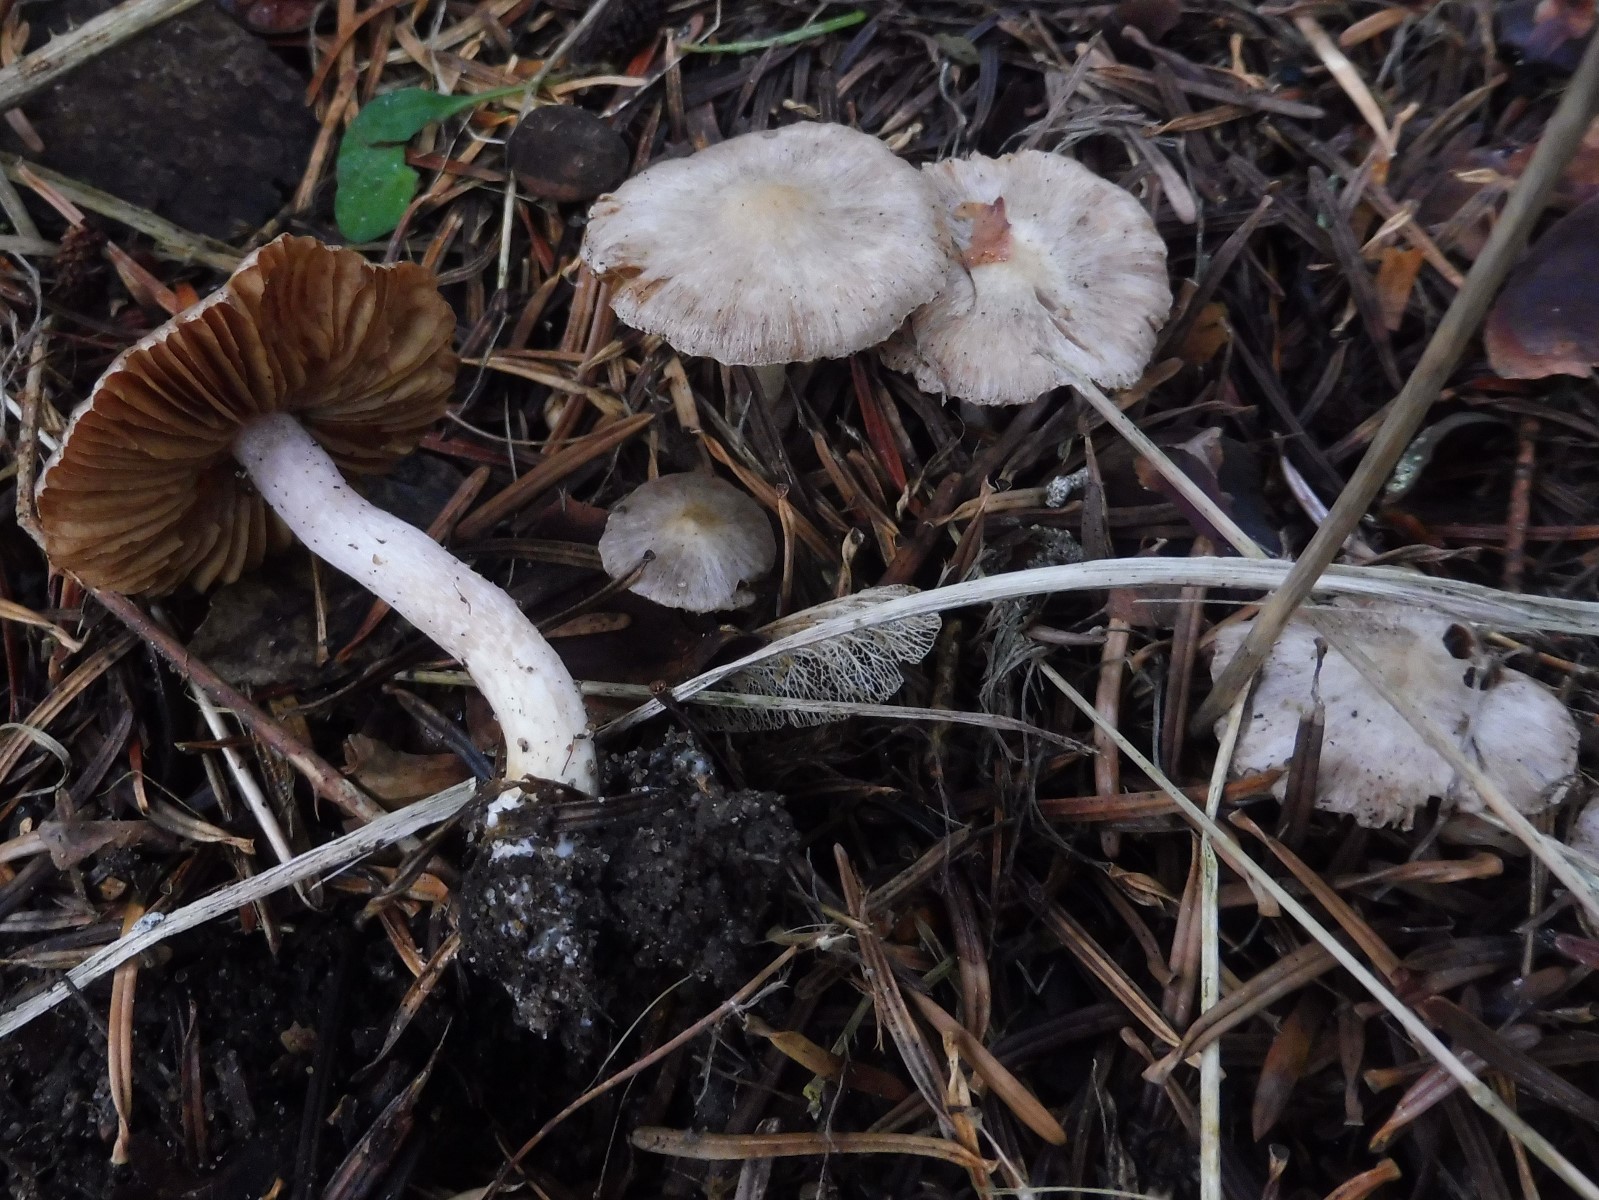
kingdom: Fungi
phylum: Basidiomycota
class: Agaricomycetes
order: Agaricales
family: Inocybaceae
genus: Inocybe
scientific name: Inocybe
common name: almindelig trævlhat
